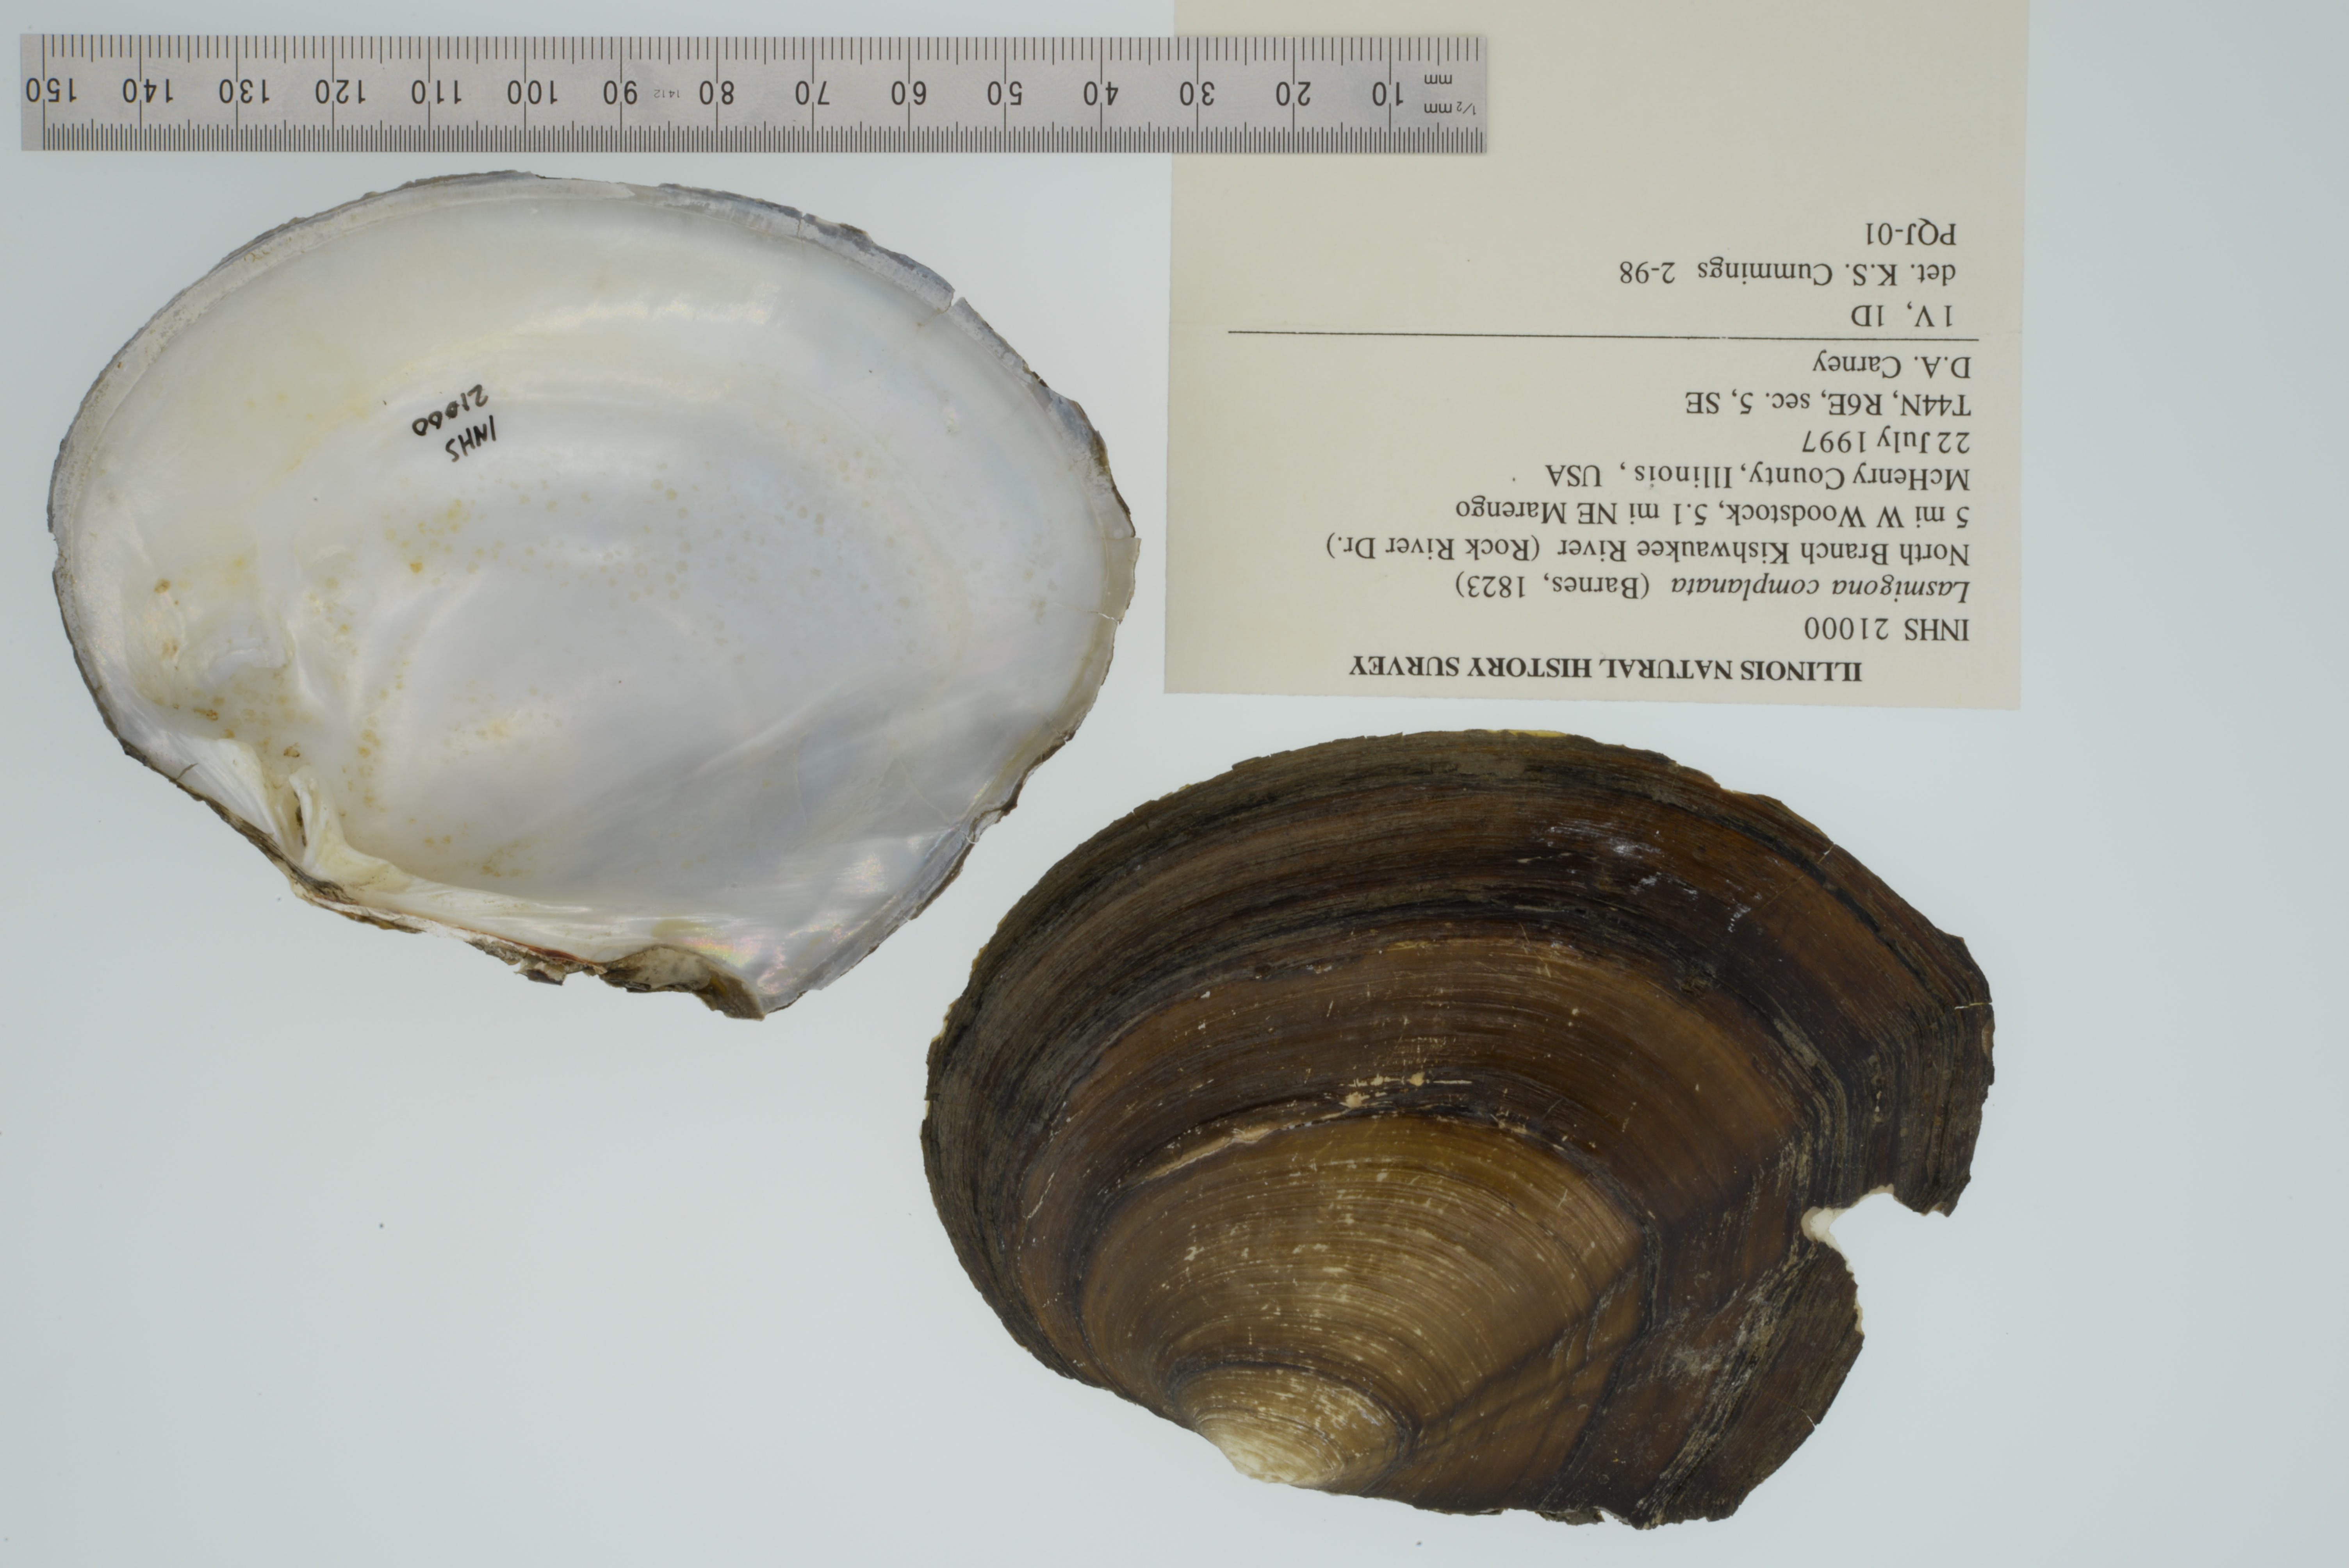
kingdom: Animalia
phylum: Mollusca
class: Bivalvia
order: Unionida
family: Unionidae
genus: Lasmigona
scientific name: Lasmigona complanata
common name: White heelsplitter
